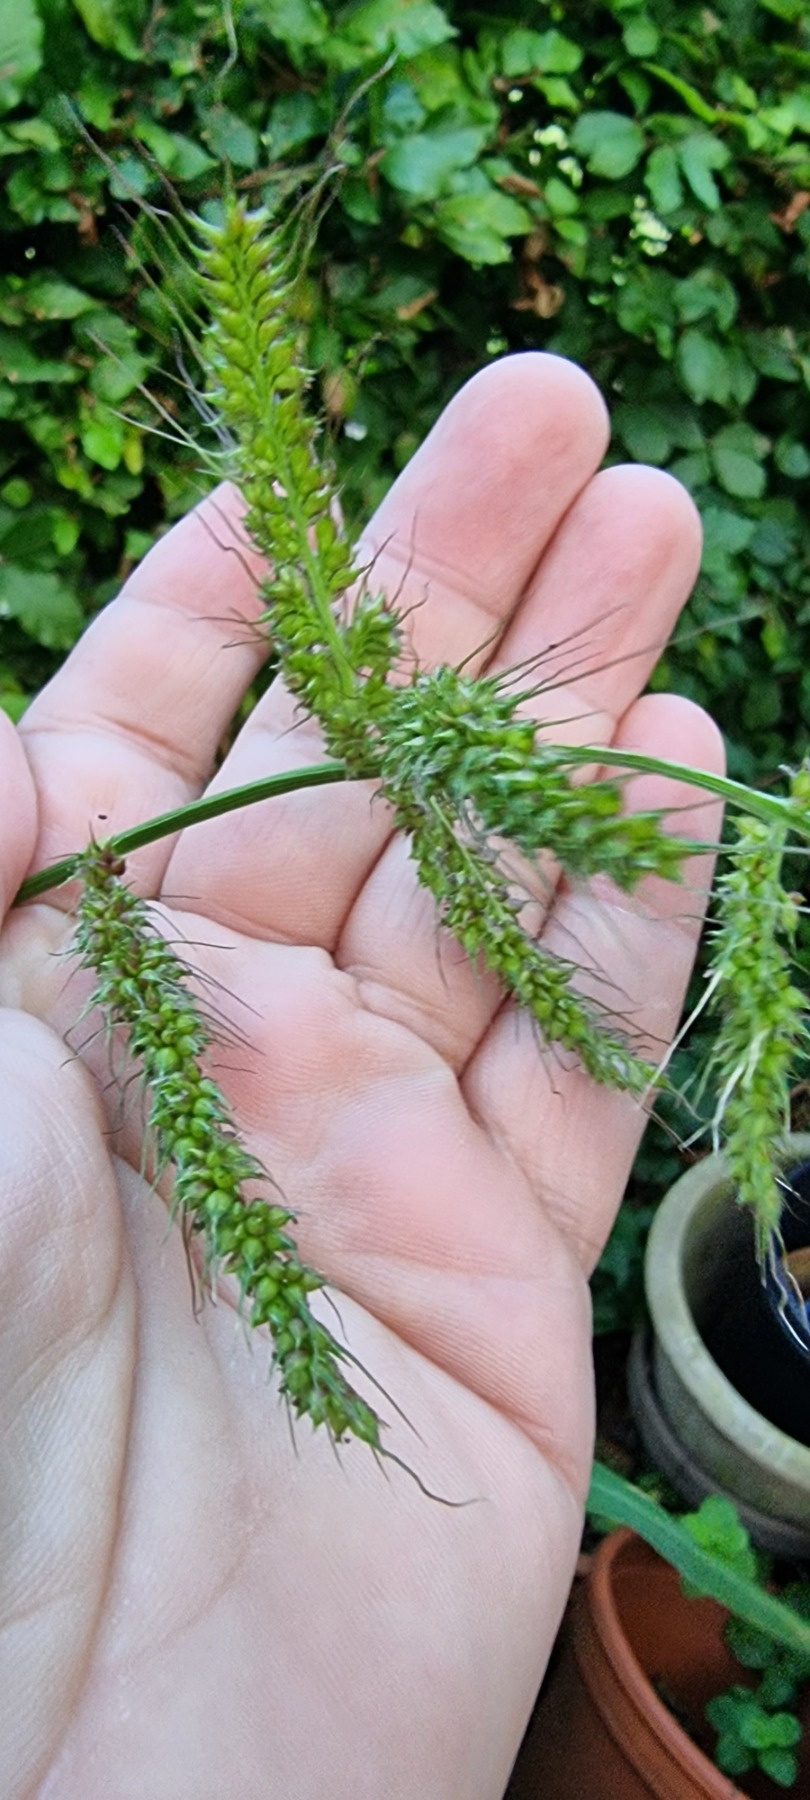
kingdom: Plantae
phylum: Tracheophyta
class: Liliopsida
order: Poales
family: Poaceae
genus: Echinochloa
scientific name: Echinochloa crus-galli
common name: Almindelig hanespore
